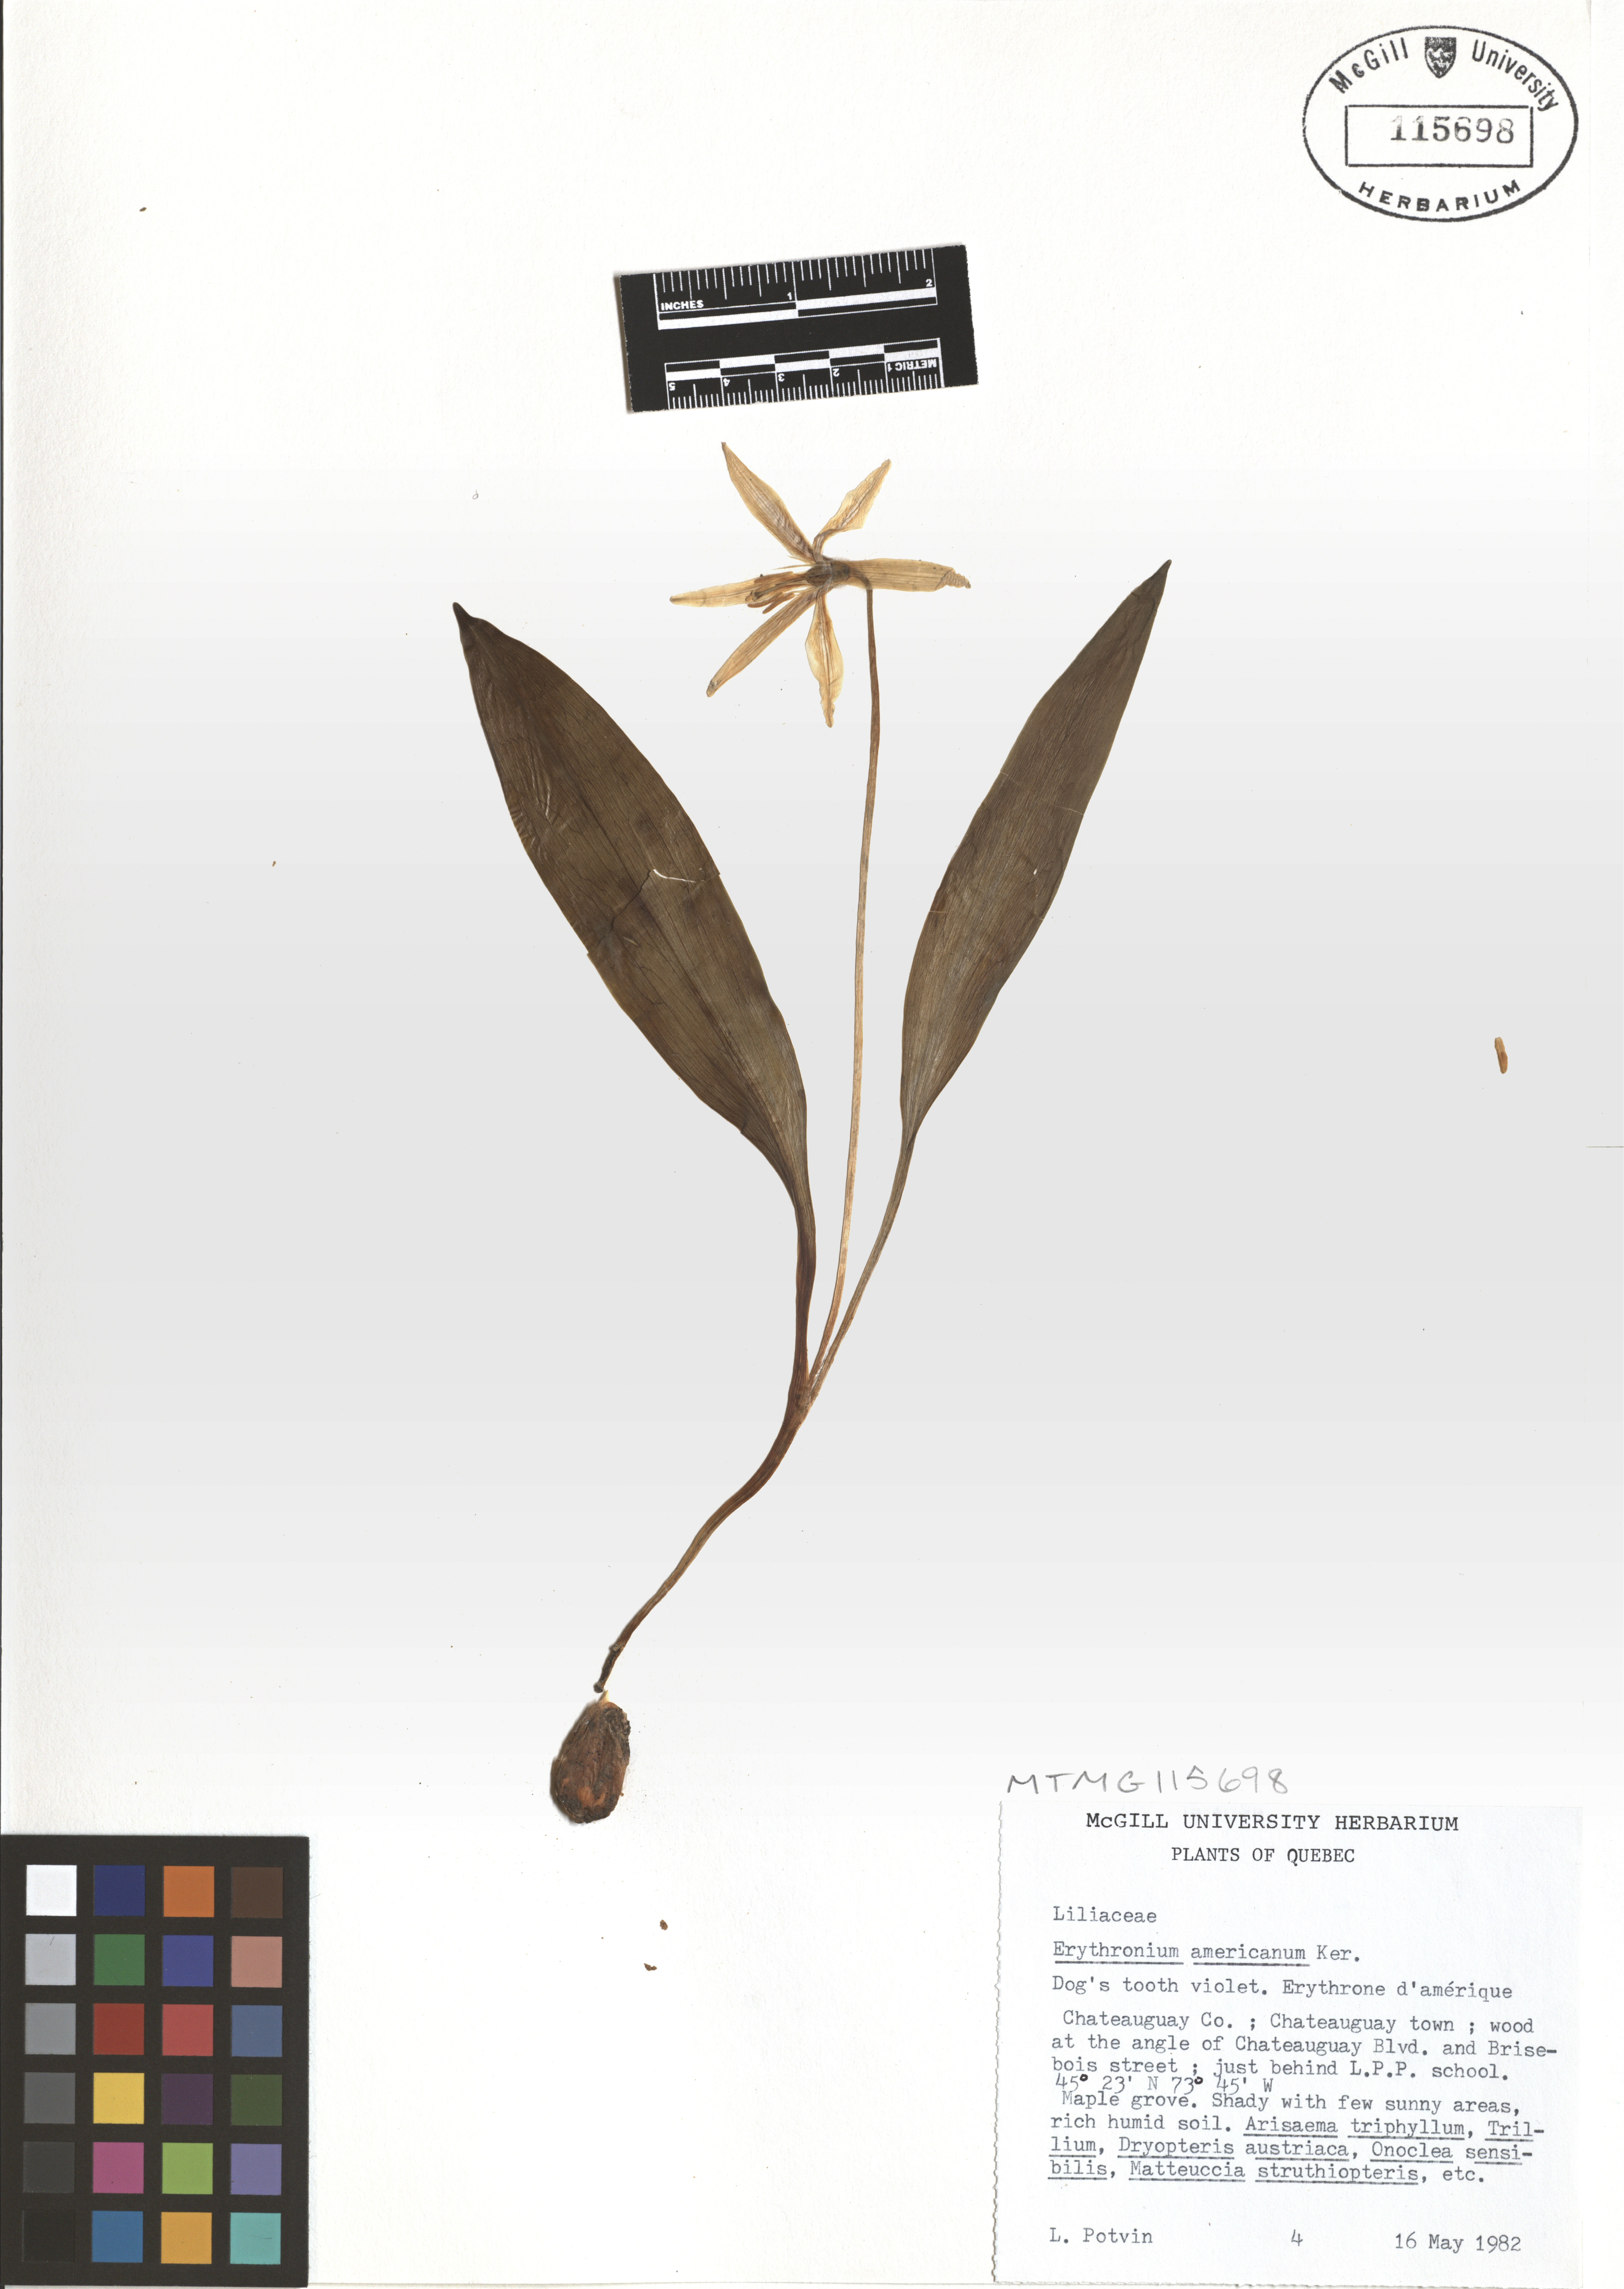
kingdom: Plantae
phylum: Tracheophyta
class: Liliopsida
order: Liliales
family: Liliaceae
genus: Erythronium
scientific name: Erythronium americanum
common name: Yellow adder's-tongue
